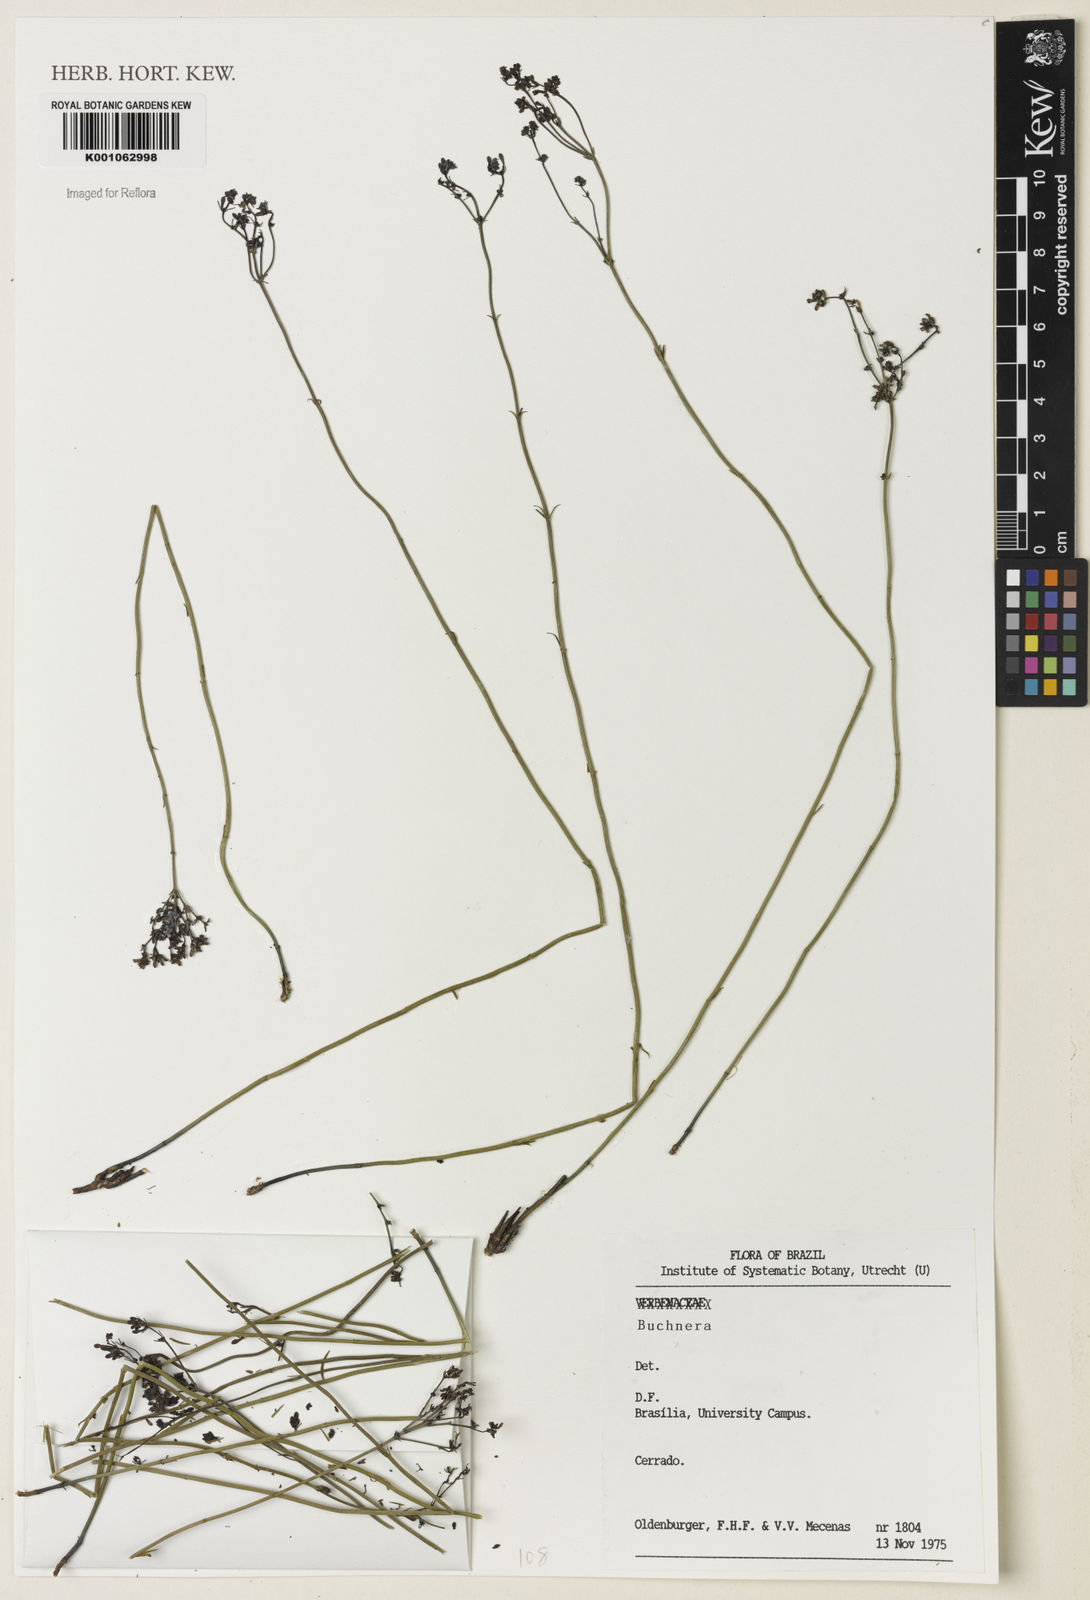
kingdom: Plantae
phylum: Tracheophyta
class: Magnoliopsida
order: Gentianales
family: Loganiaceae
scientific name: Loganiaceae
